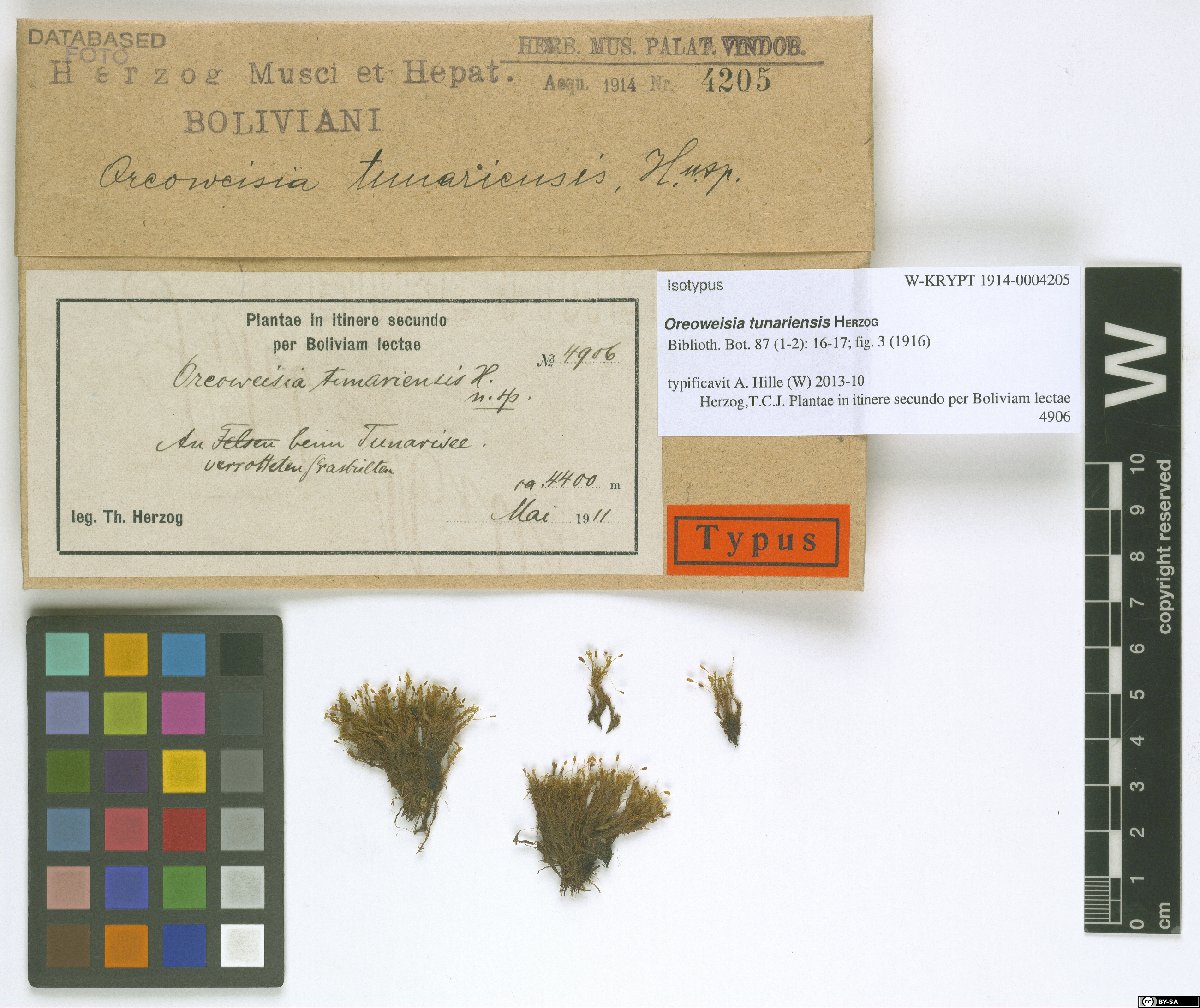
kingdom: Plantae
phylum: Bryophyta
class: Bryopsida
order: Dicranales
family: Rhabdoweisiaceae
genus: Cynodontium
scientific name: Cynodontium tunariense
